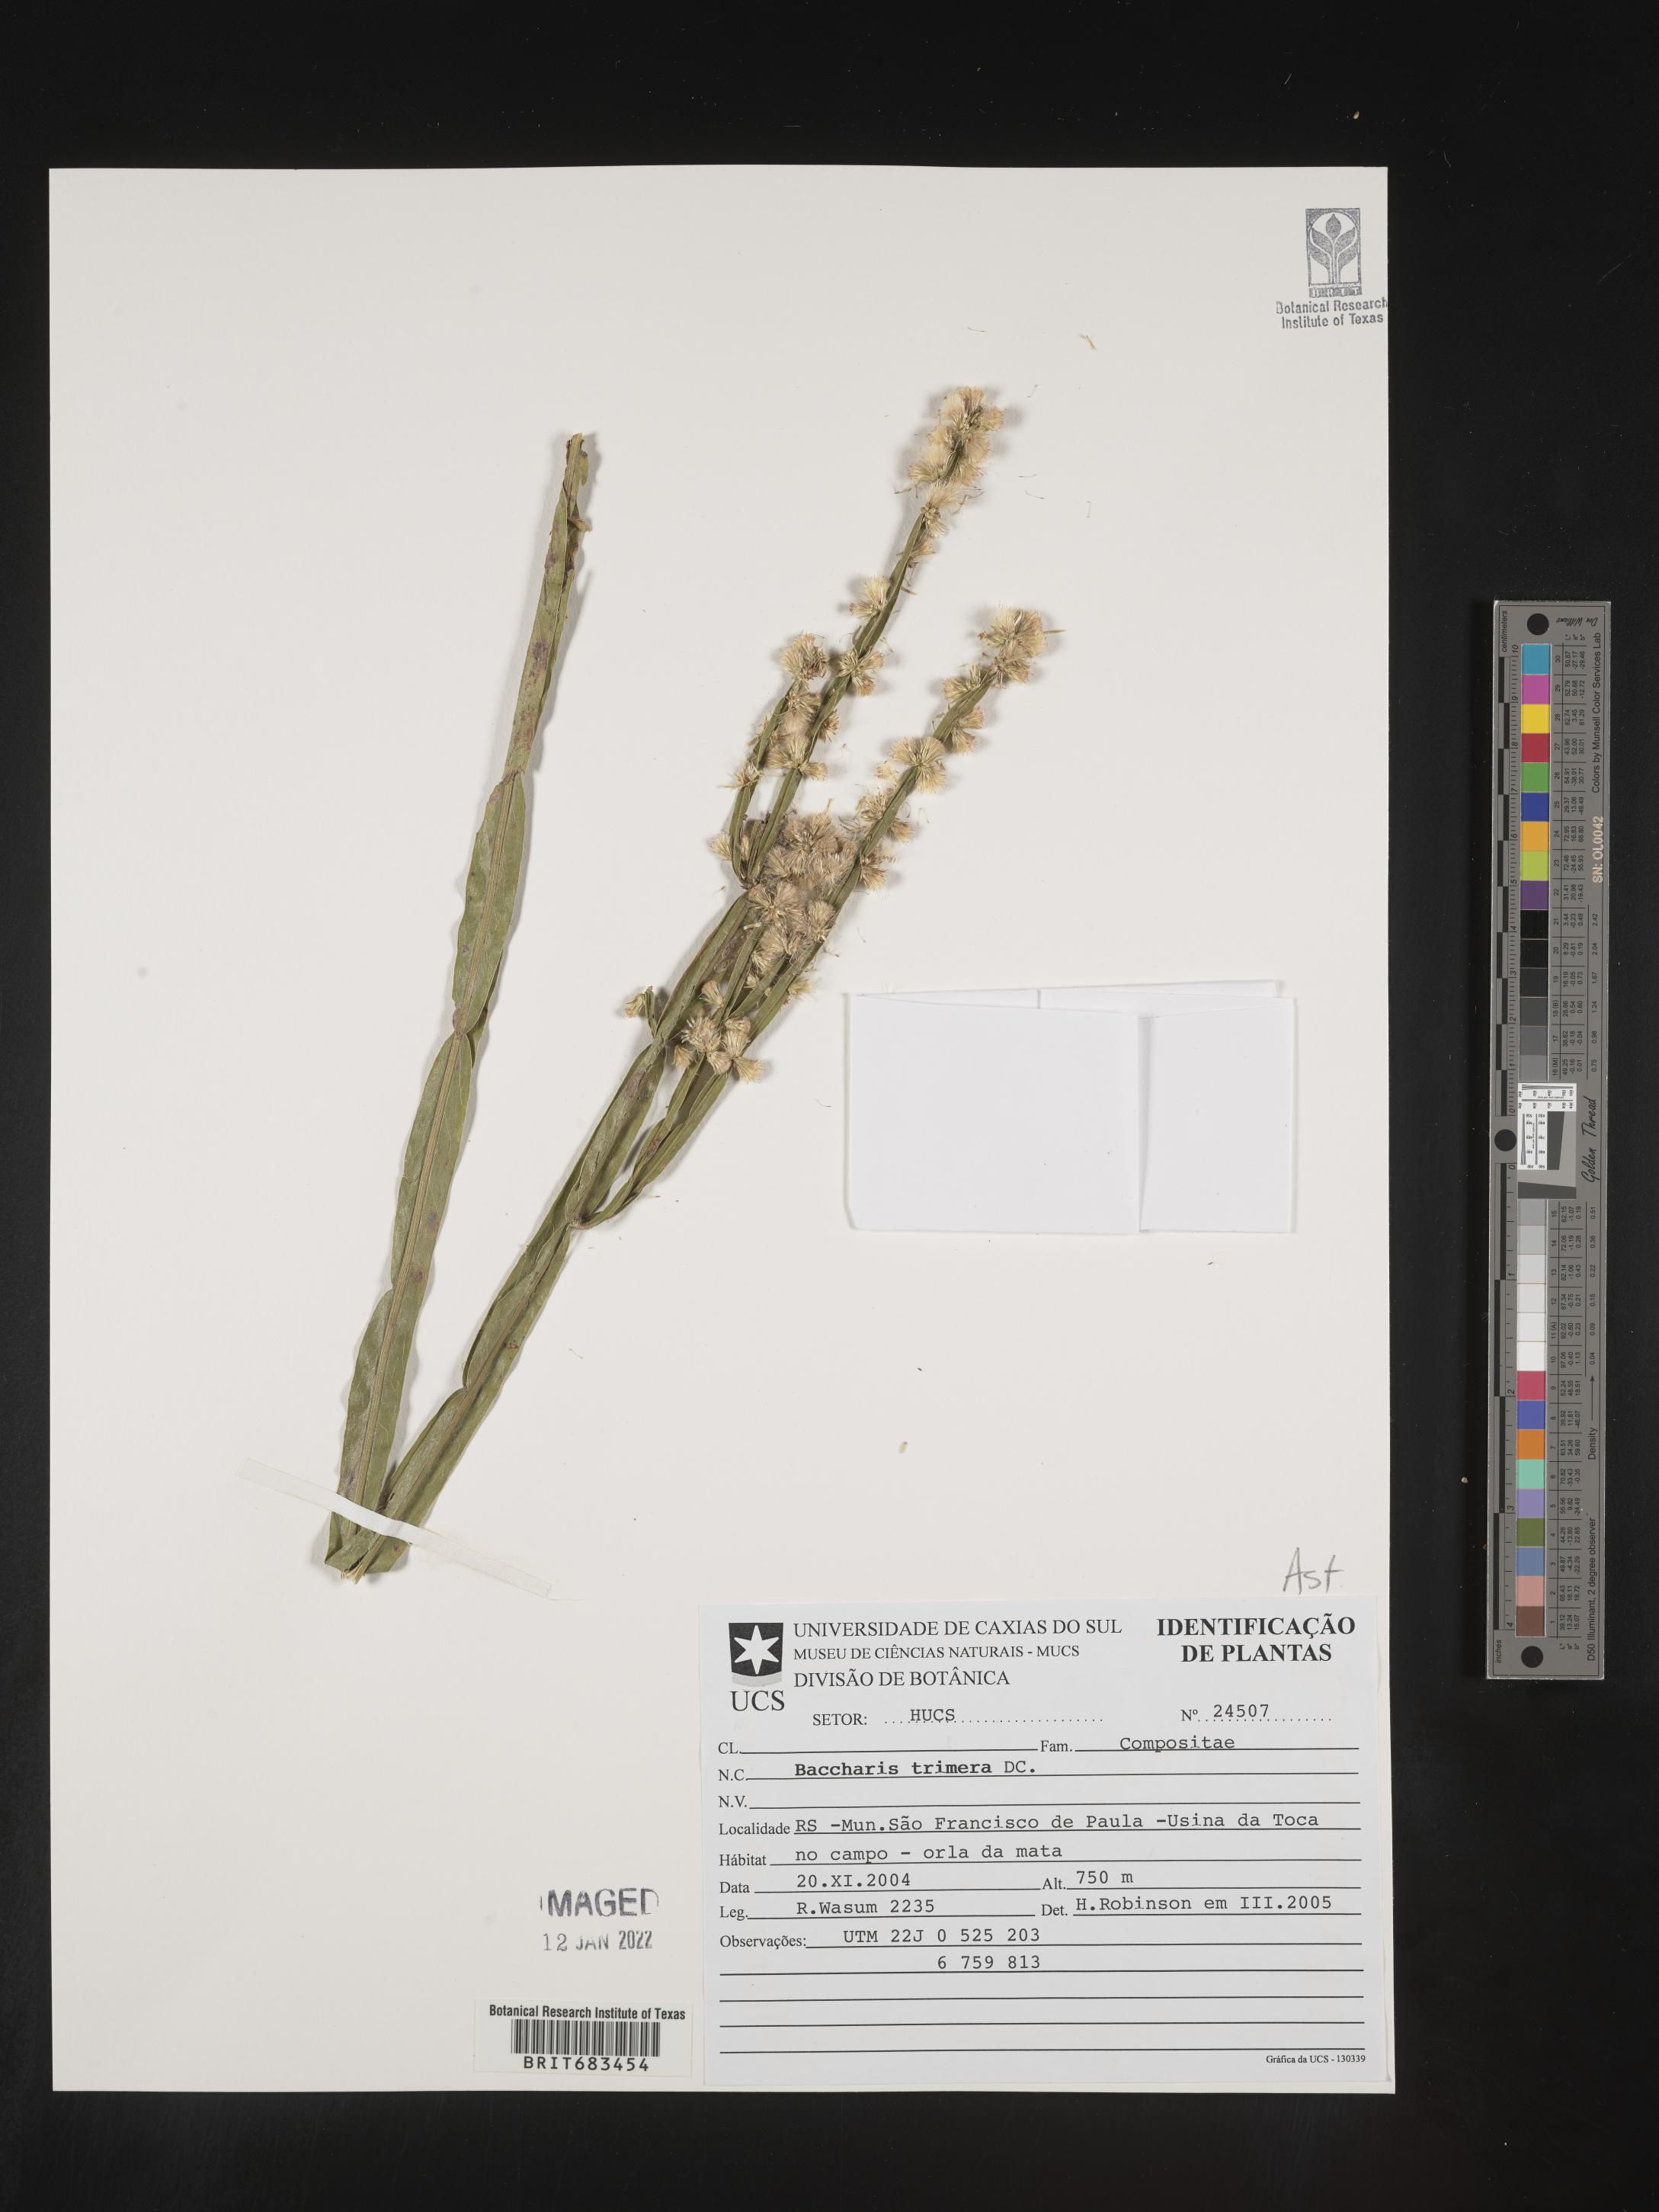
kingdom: Plantae
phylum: Tracheophyta
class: Magnoliopsida
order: Asterales
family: Asteraceae
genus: Baccharis
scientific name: Baccharis
